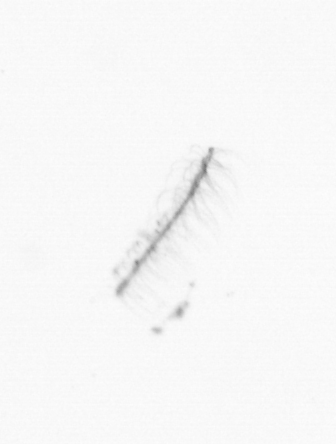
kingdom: Chromista
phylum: Ochrophyta
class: Bacillariophyceae
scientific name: Bacillariophyceae
